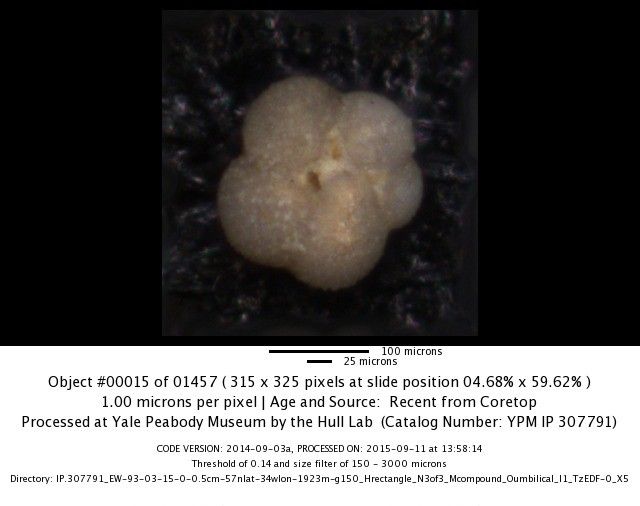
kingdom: Chromista
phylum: Foraminifera
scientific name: Foraminifera
